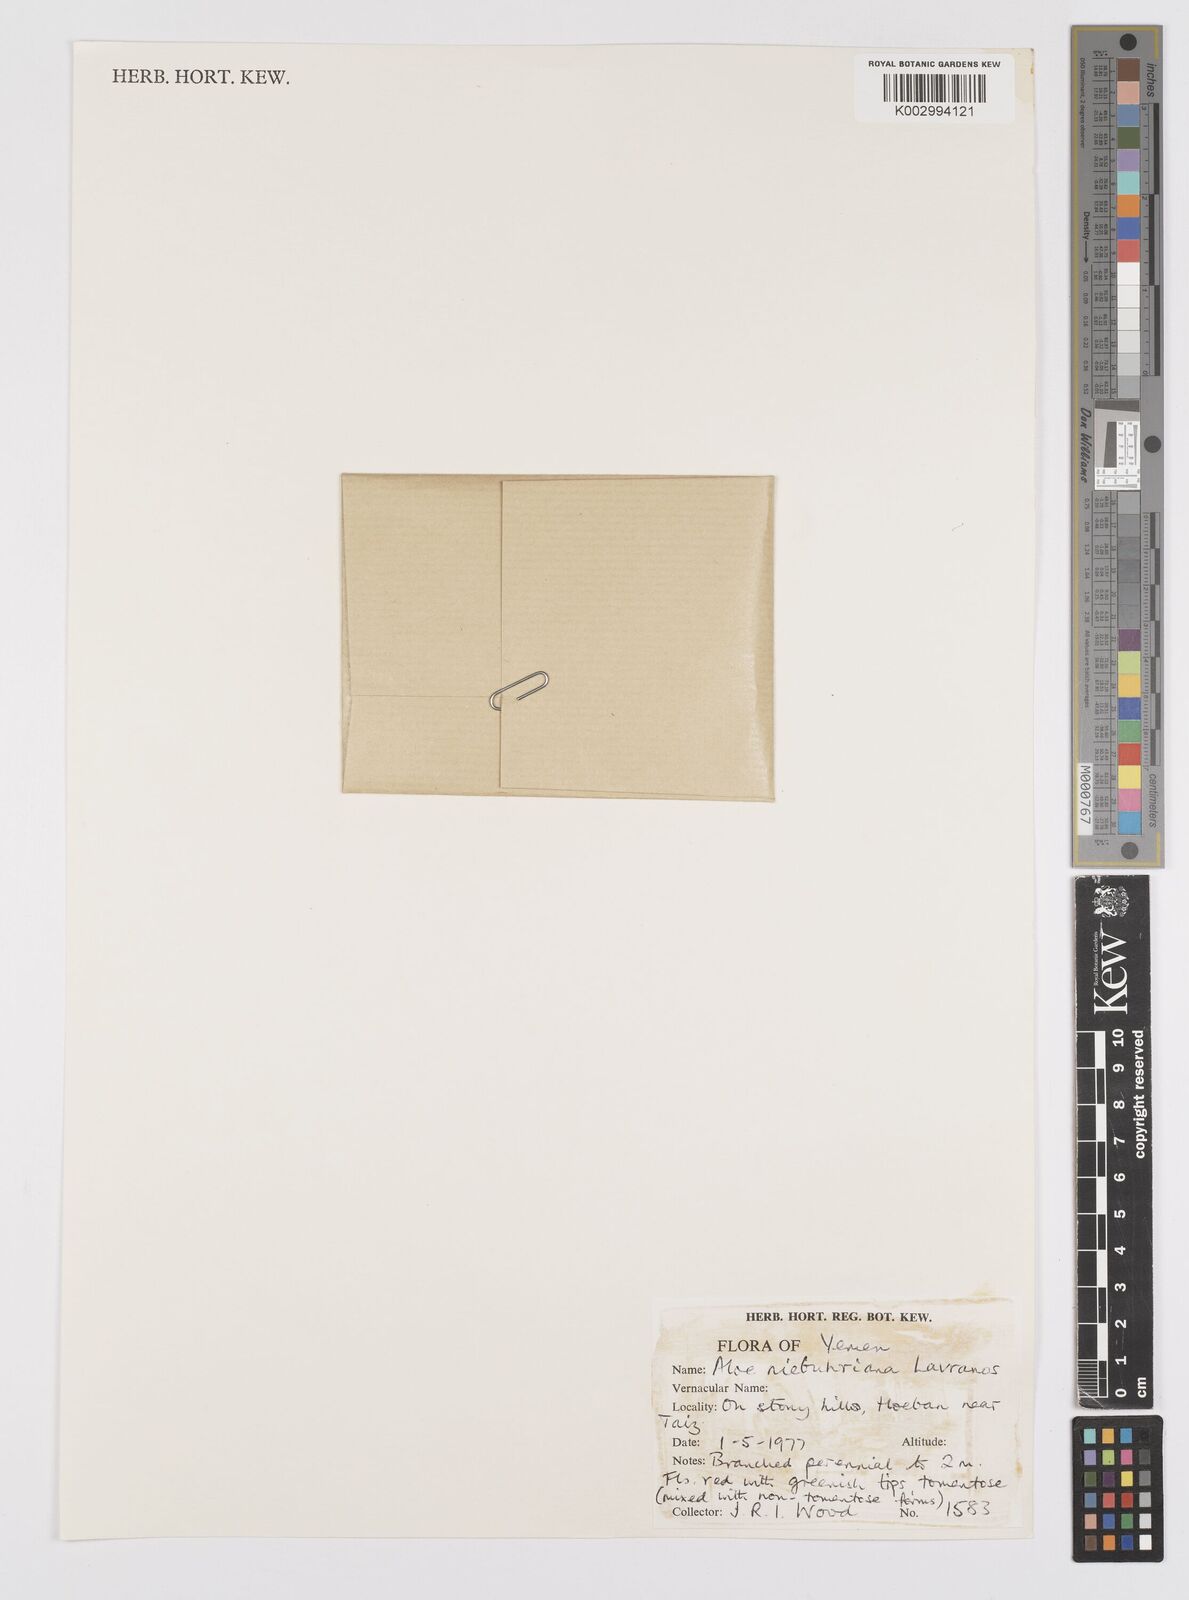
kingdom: Plantae
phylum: Tracheophyta
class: Liliopsida
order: Asparagales
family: Asphodelaceae
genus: Aloe
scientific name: Aloe lavranosii
